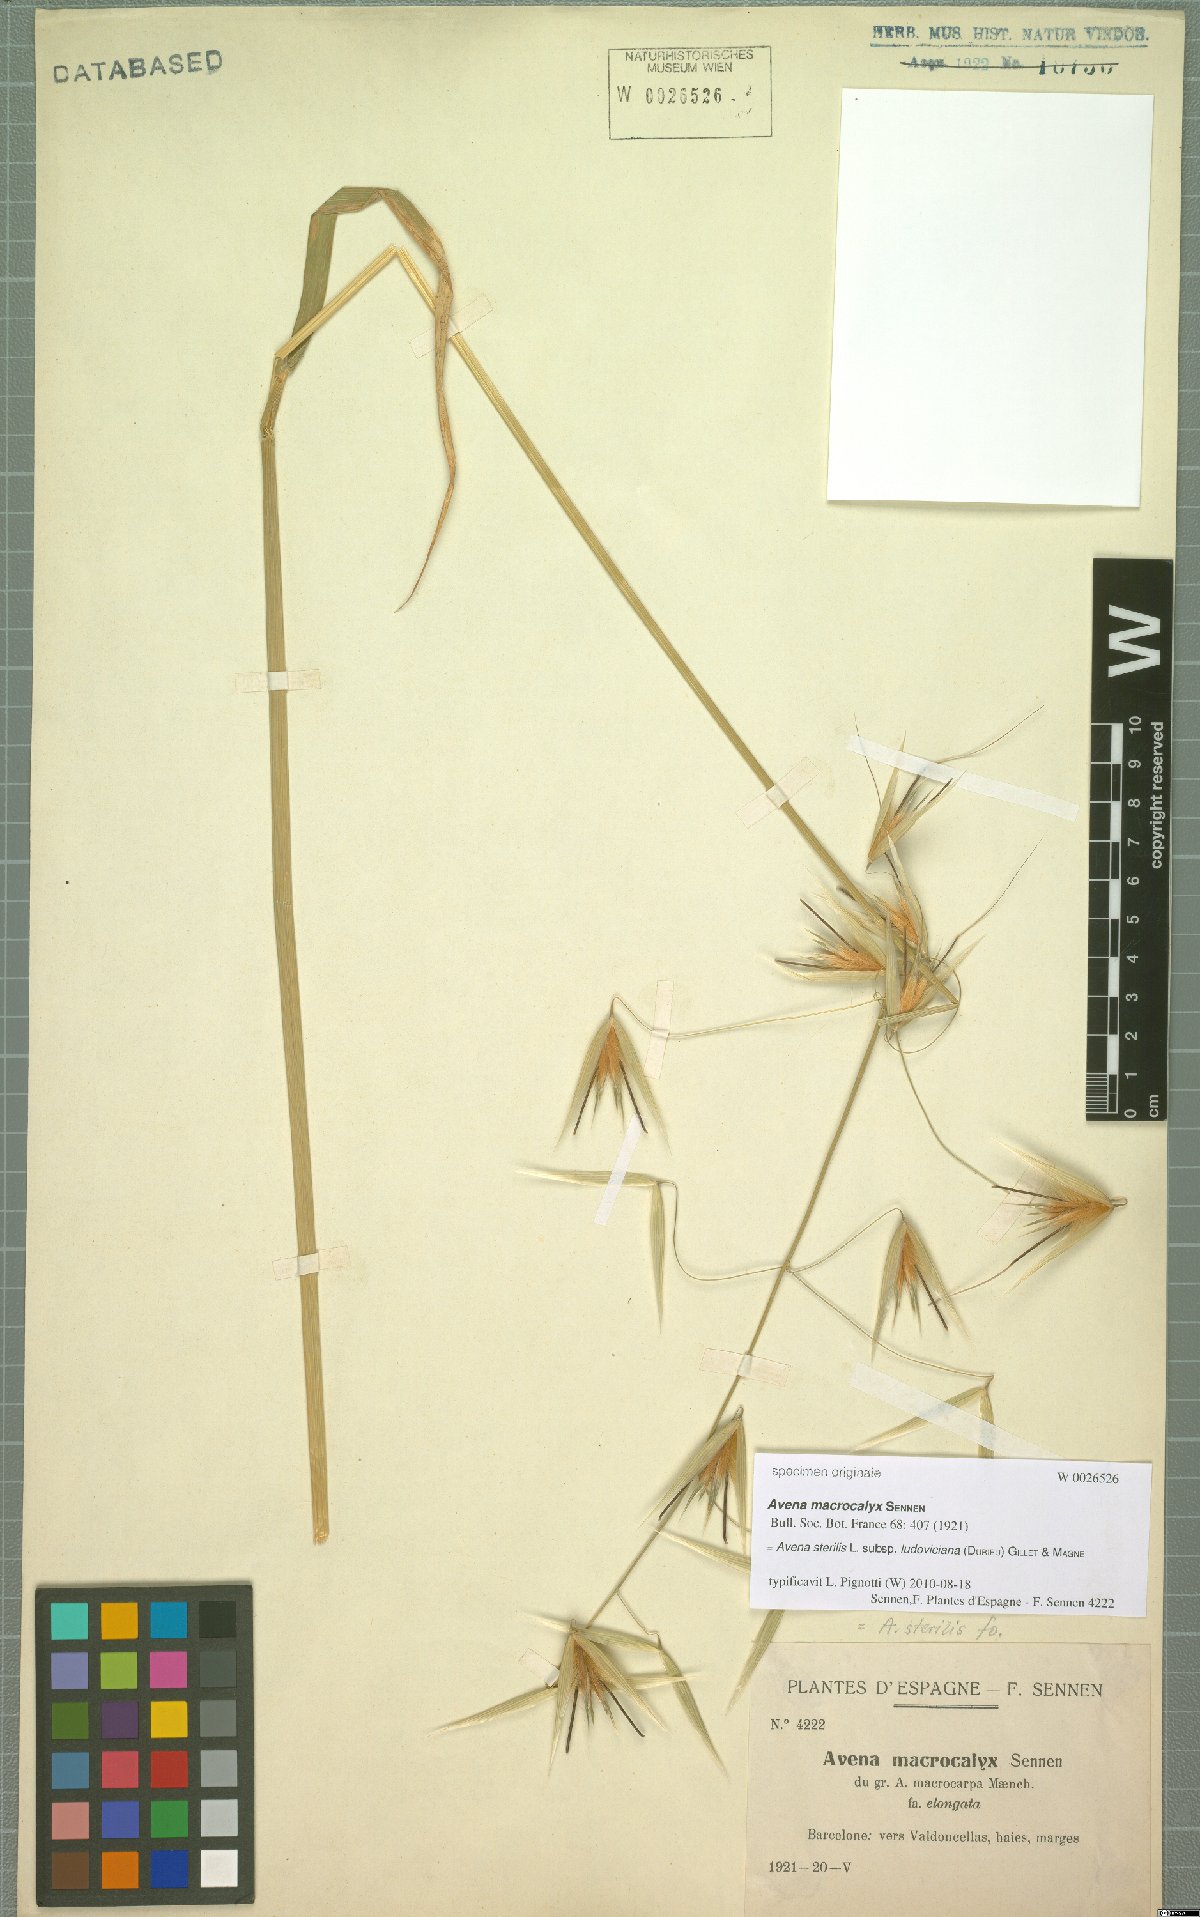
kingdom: Plantae
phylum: Tracheophyta
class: Liliopsida
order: Poales
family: Poaceae
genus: Avena
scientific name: Avena sterilis
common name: Animated oat
